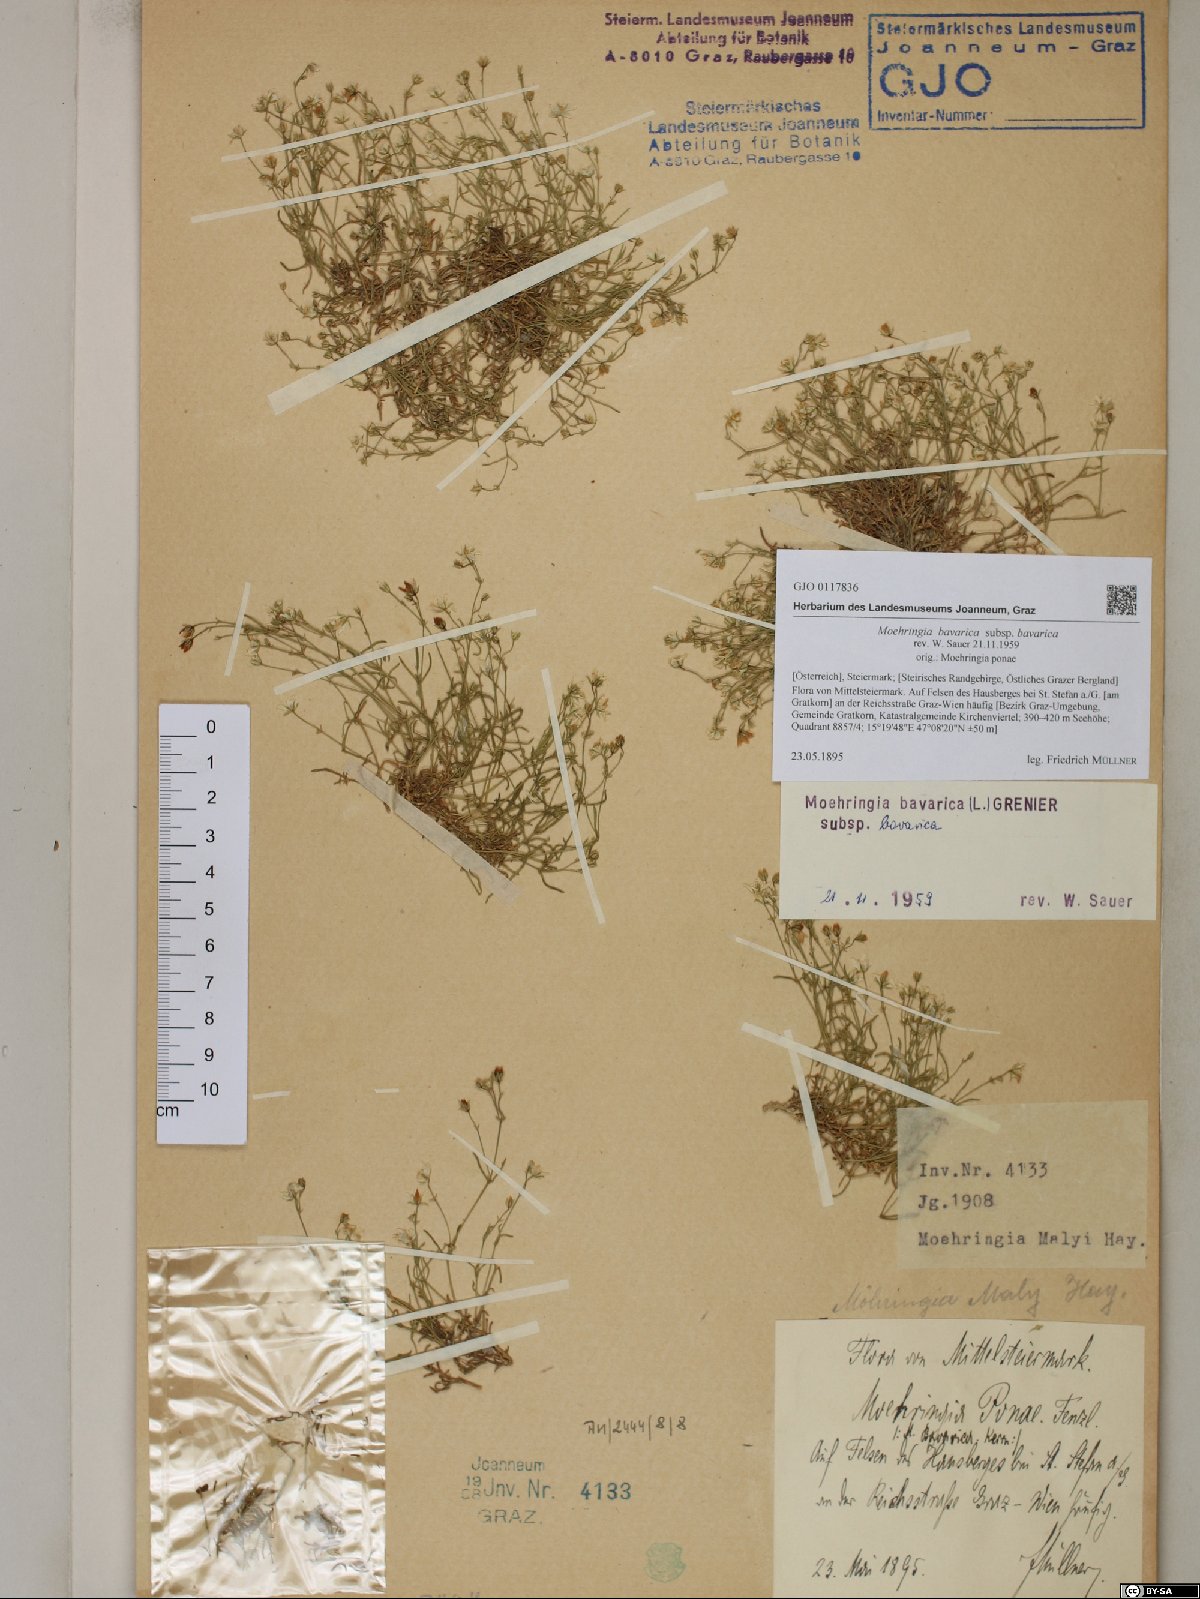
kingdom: Plantae
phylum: Tracheophyta
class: Magnoliopsida
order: Caryophyllales
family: Caryophyllaceae
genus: Moehringia
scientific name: Moehringia bavarica
